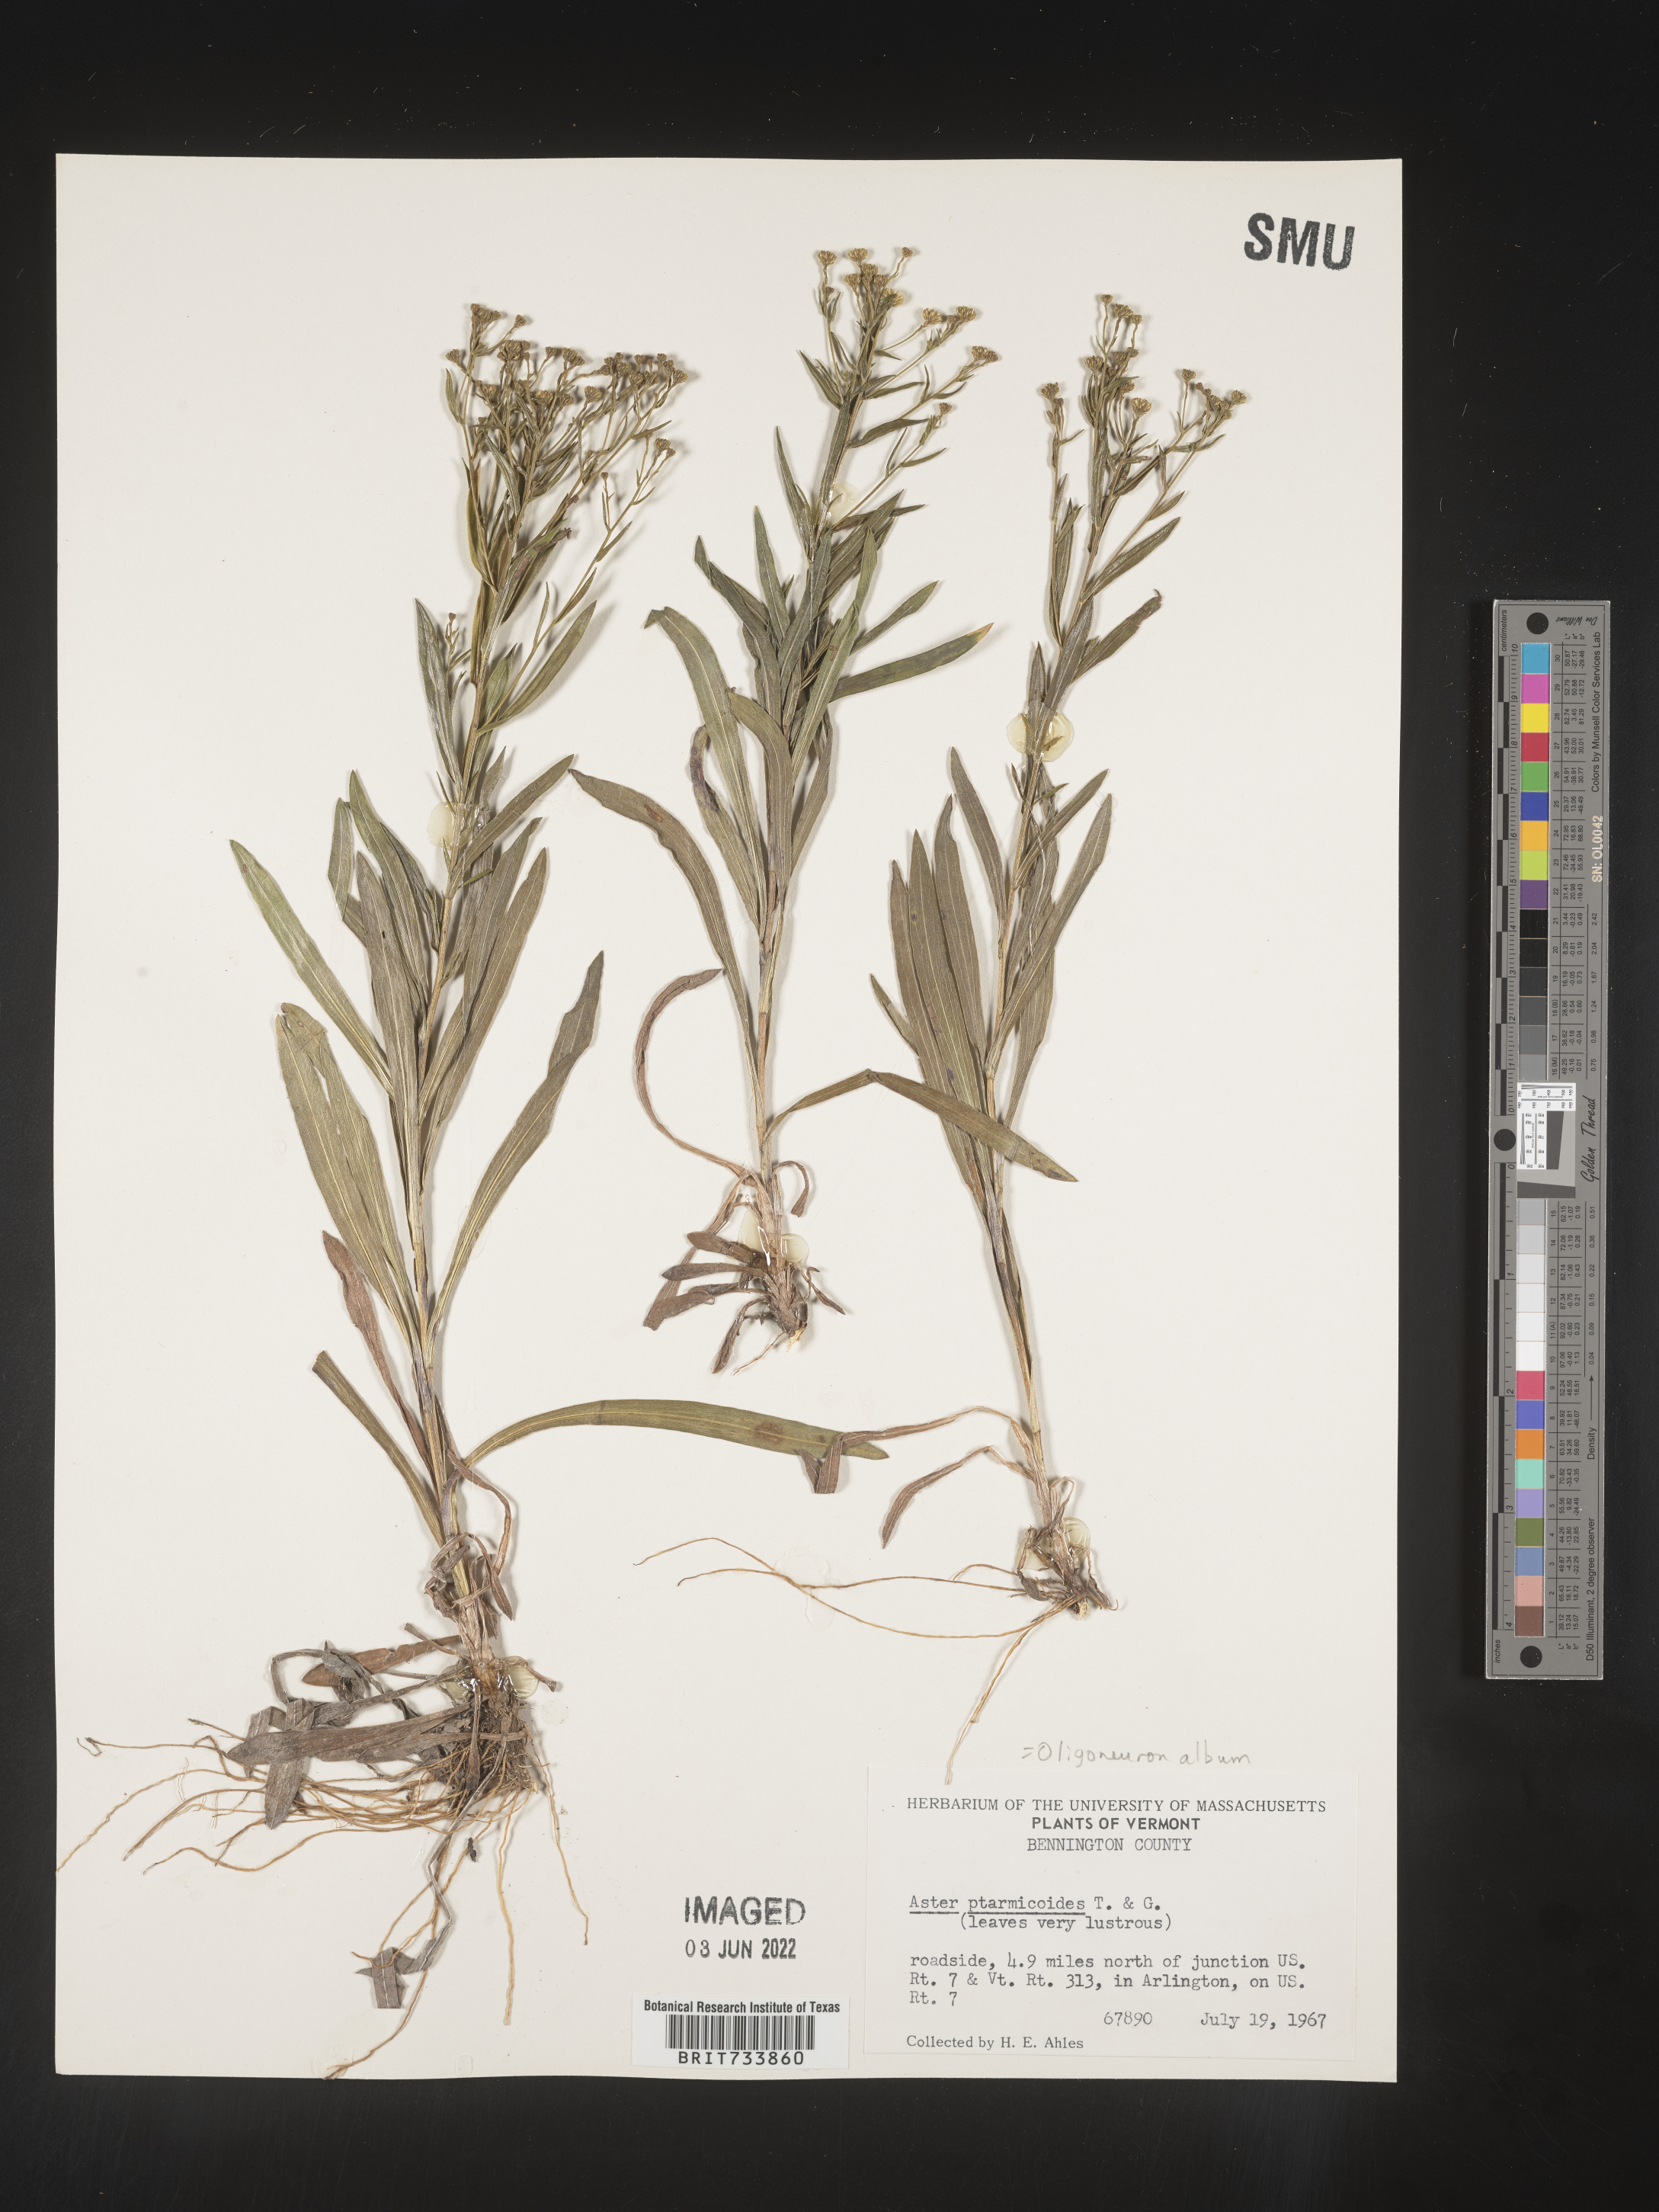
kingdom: Plantae
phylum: Tracheophyta
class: Magnoliopsida
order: Asterales
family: Asteraceae
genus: Solidago
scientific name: Solidago ptarmicoides
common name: White flat-top goldenrod
